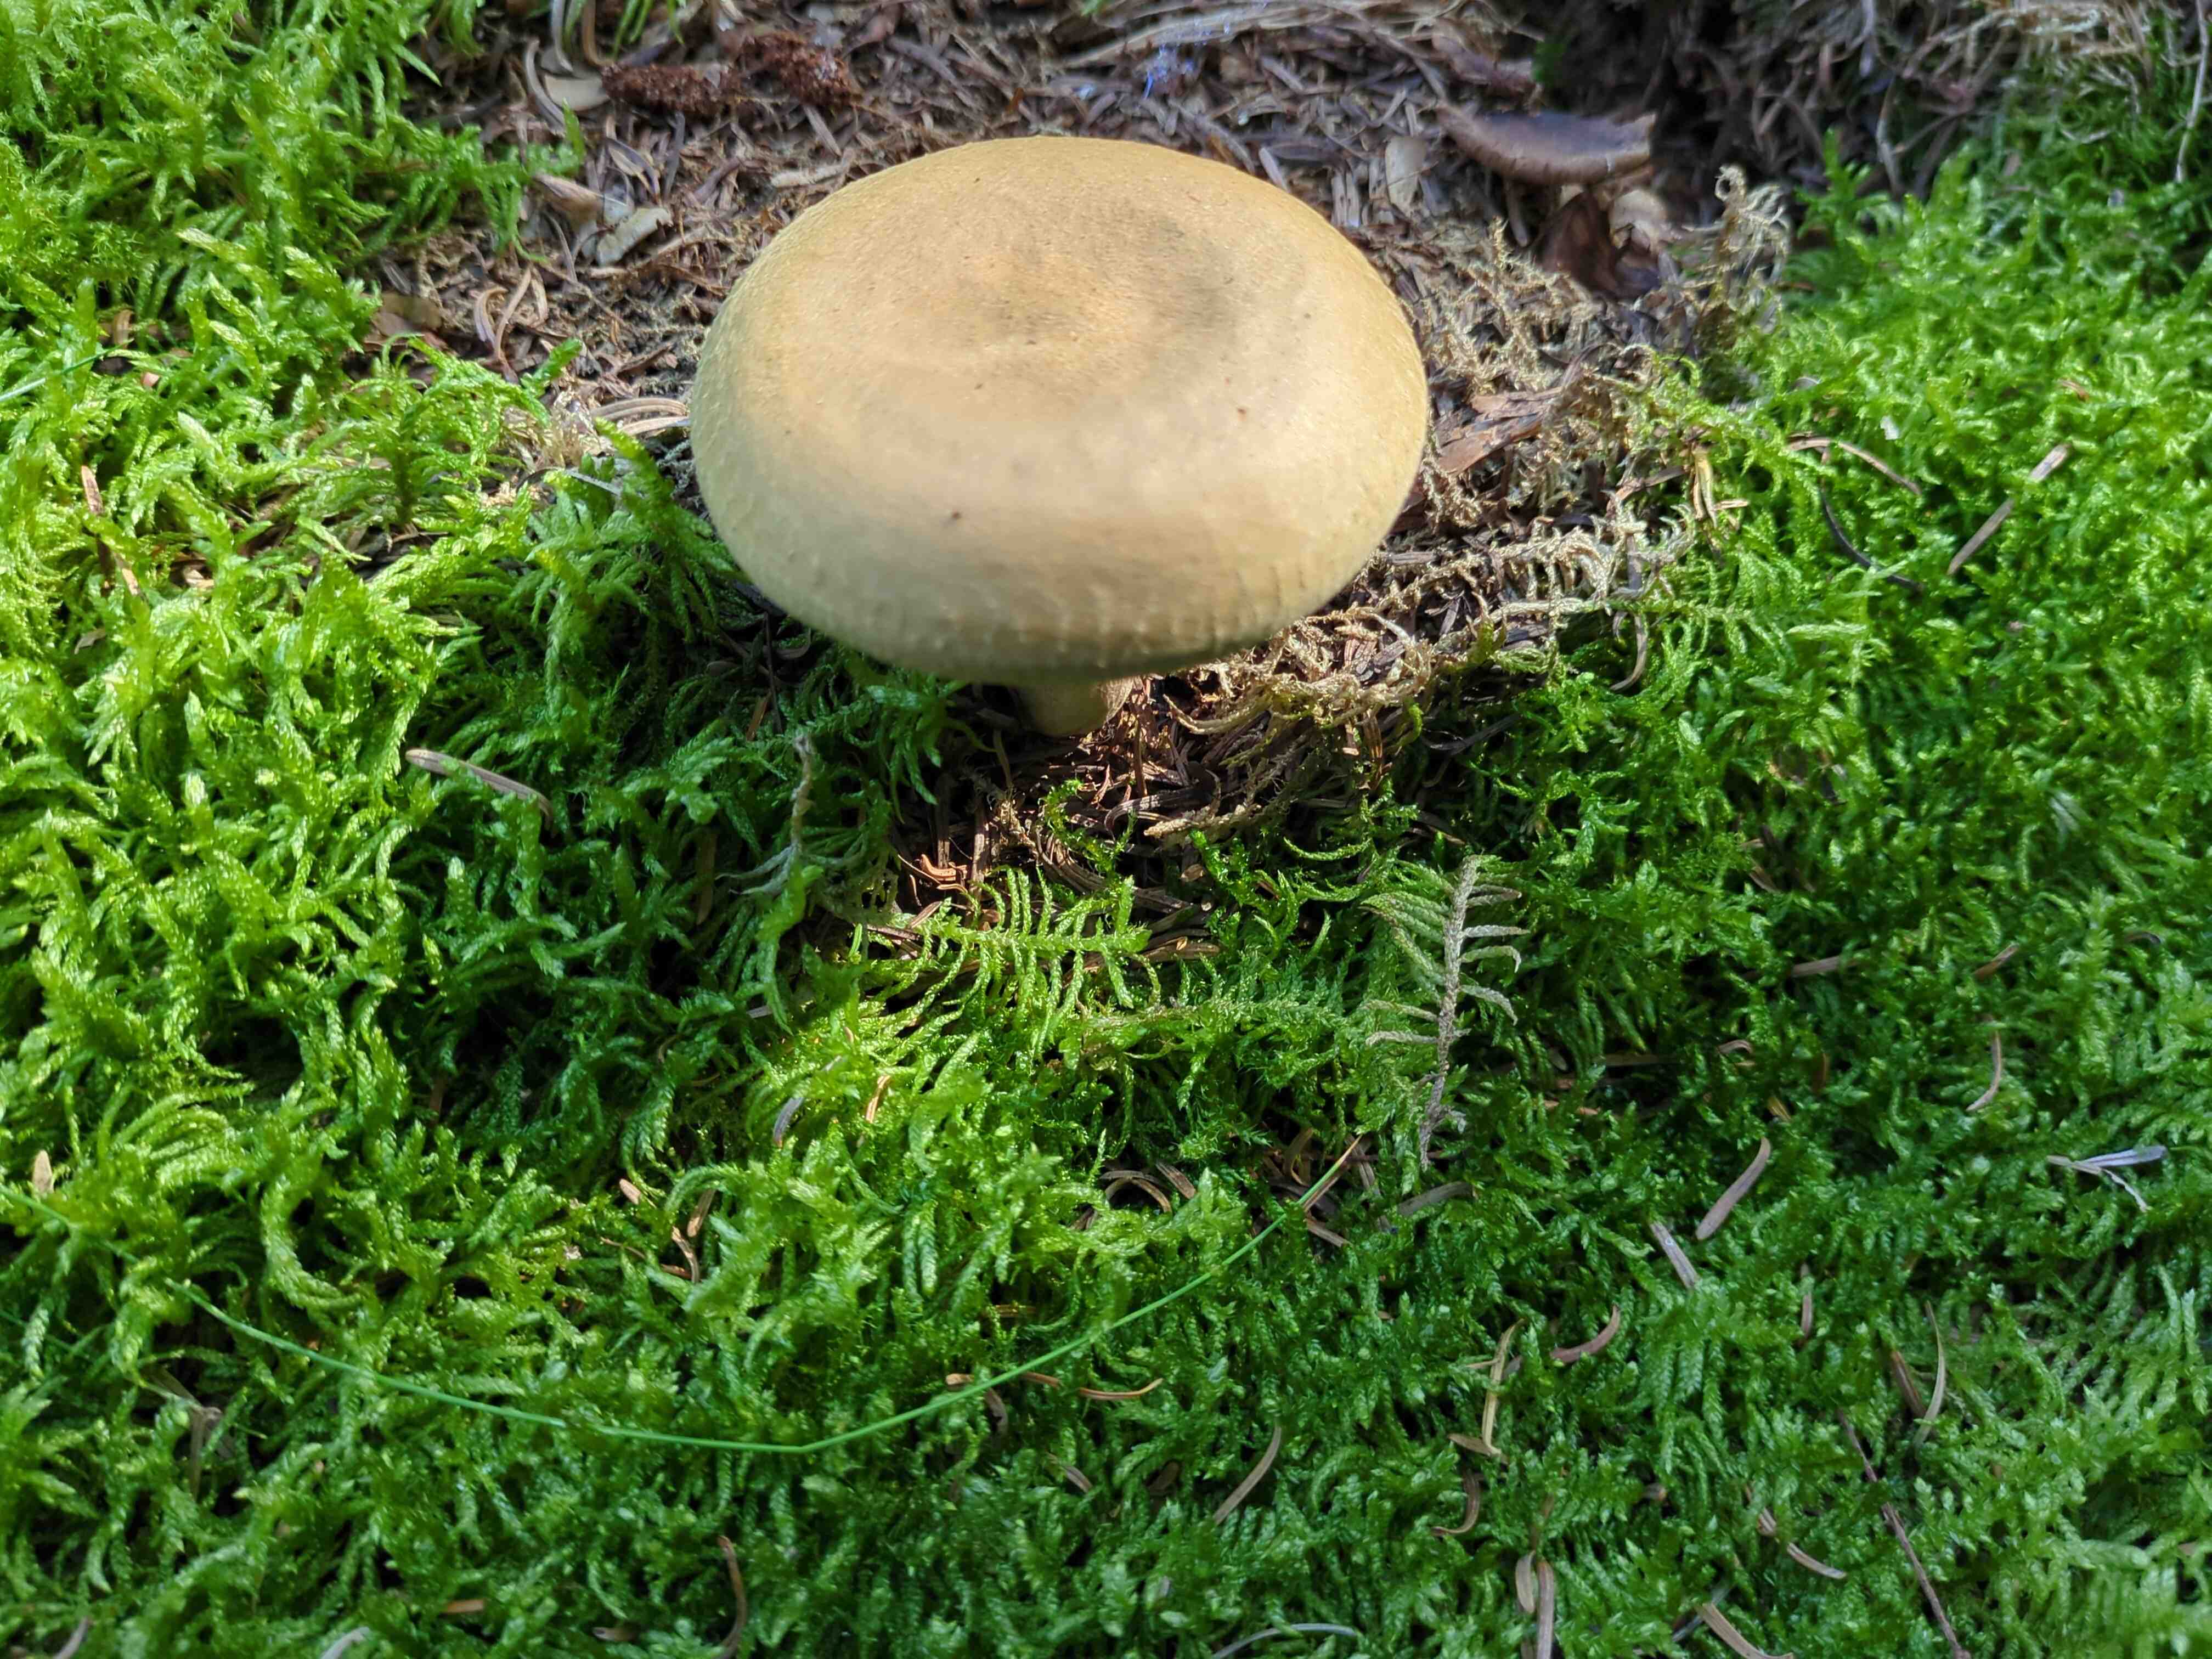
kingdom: Fungi
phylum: Basidiomycota
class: Agaricomycetes
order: Boletales
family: Paxillaceae
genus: Paxillus
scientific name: Paxillus involutus
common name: almindelig netbladhat
